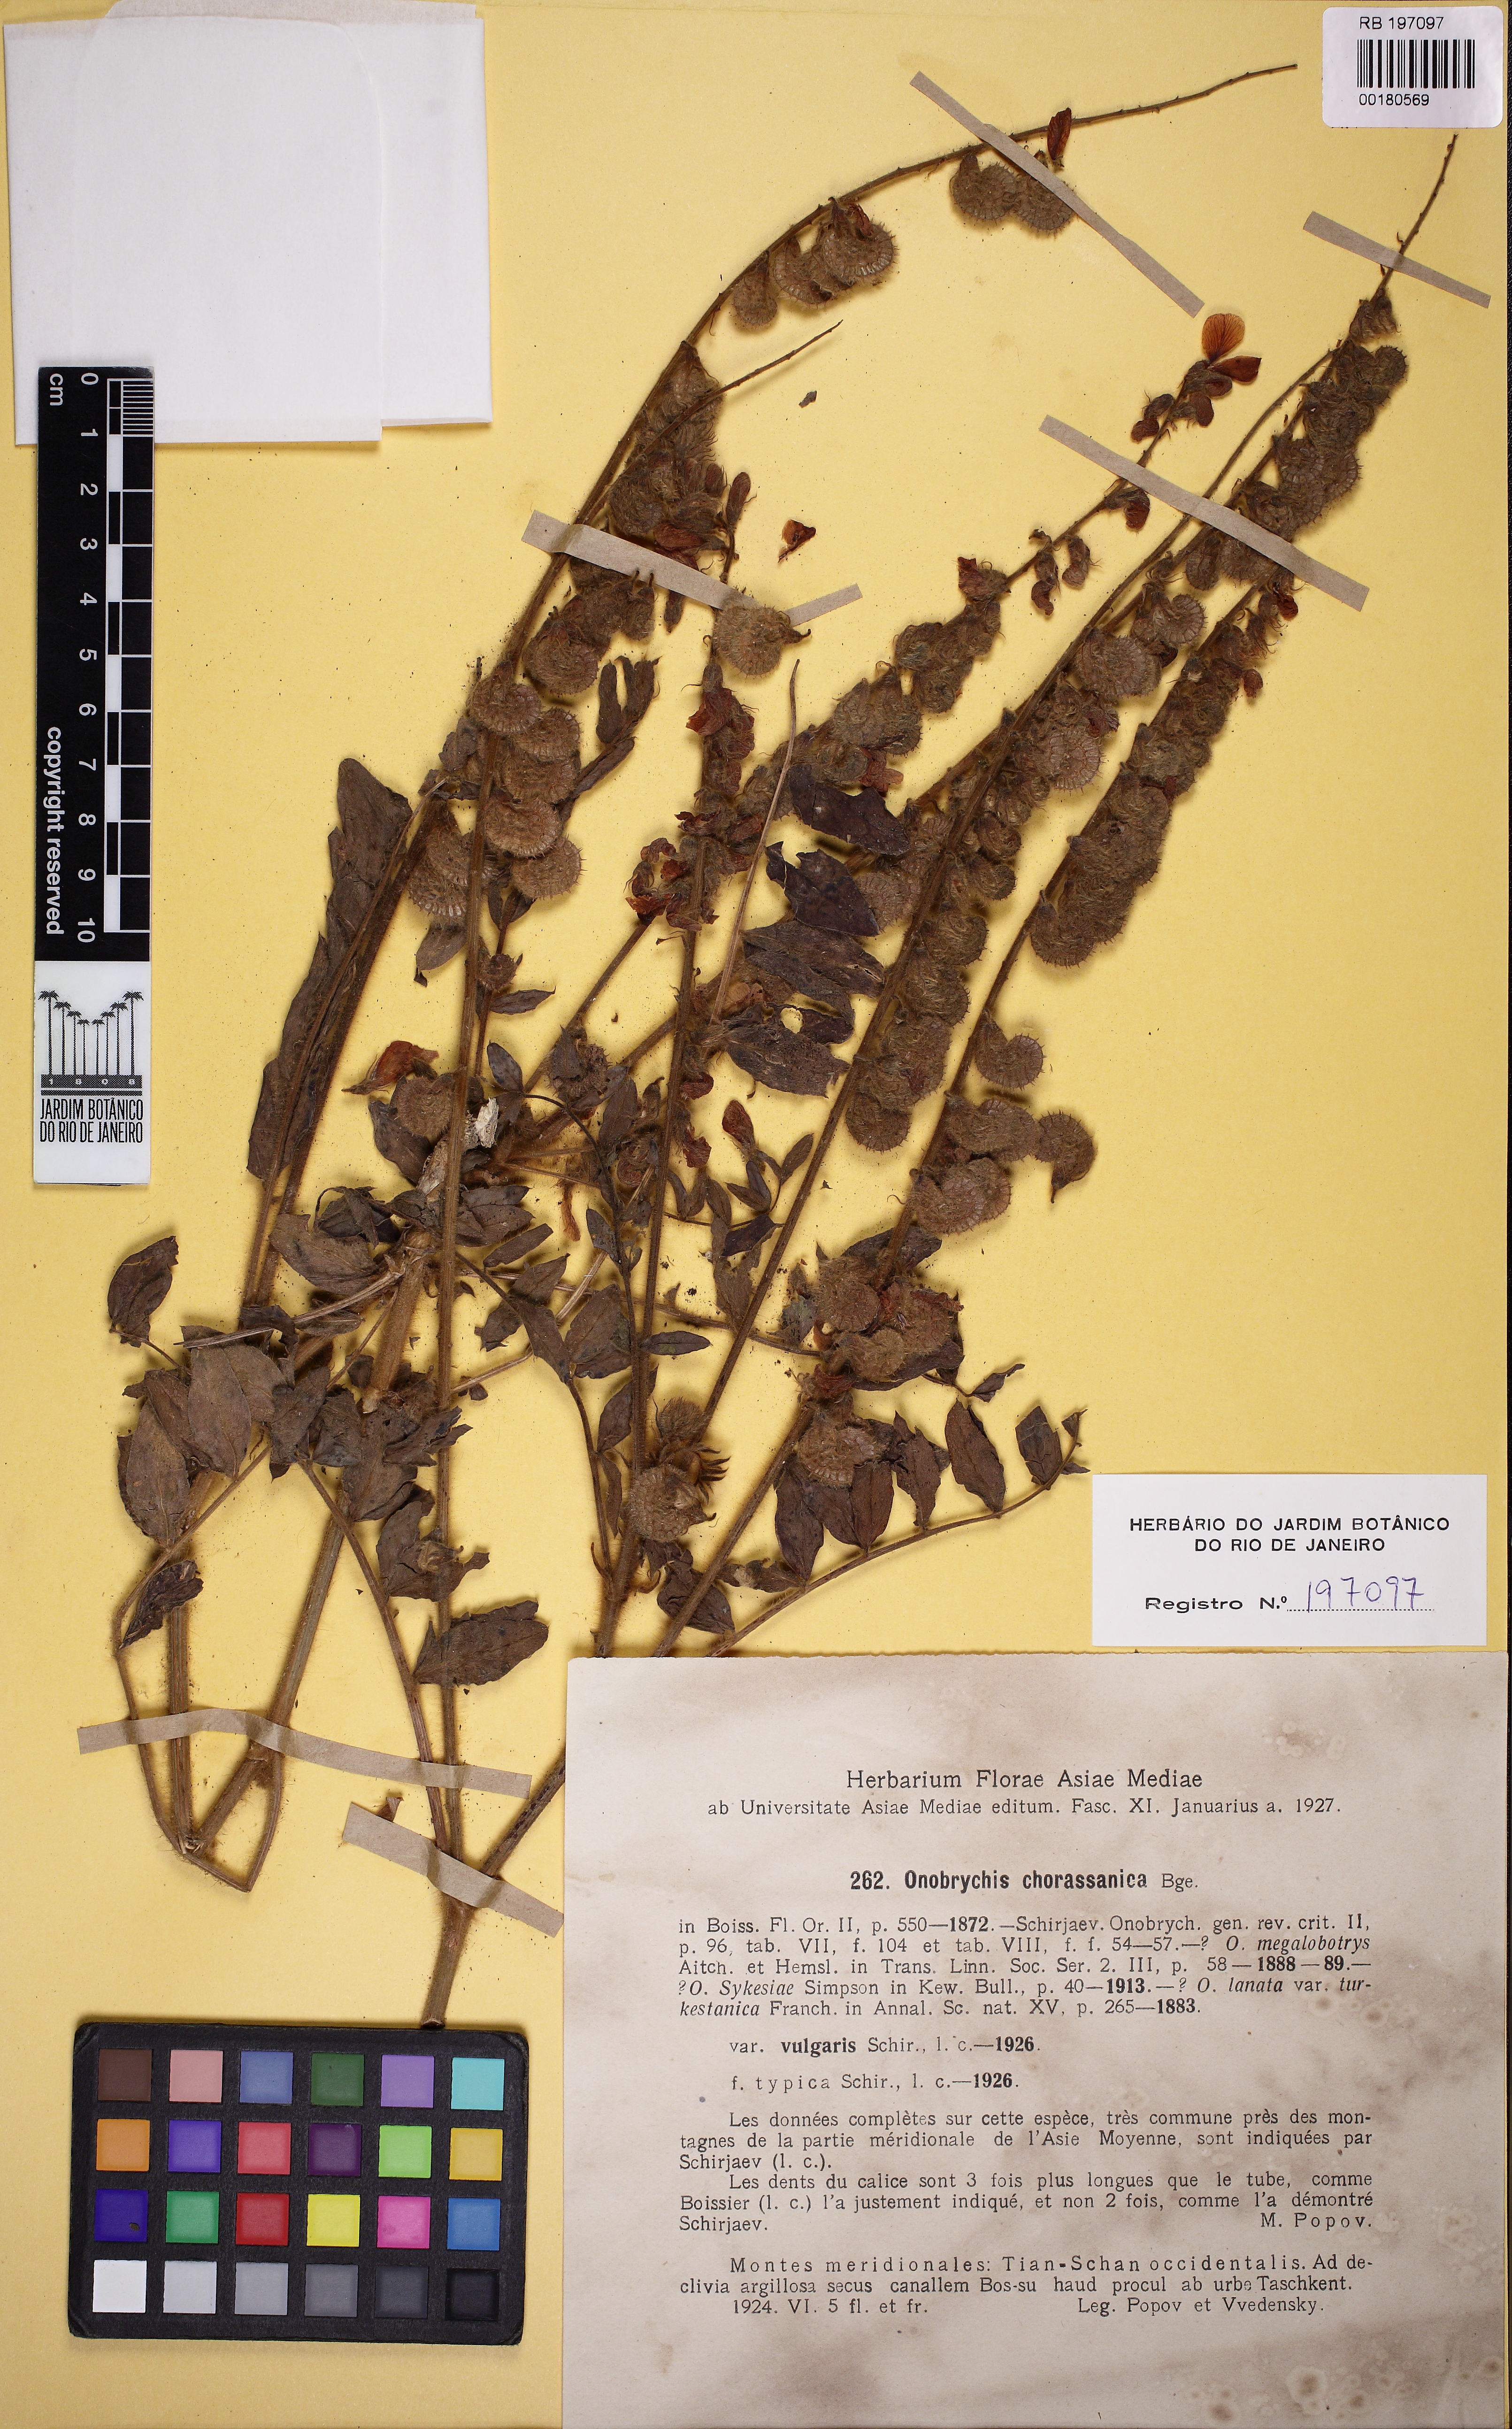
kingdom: Plantae
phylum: Tracheophyta
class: Magnoliopsida
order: Fabales
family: Fabaceae
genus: Onobrychis
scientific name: Onobrychis chorassanica
